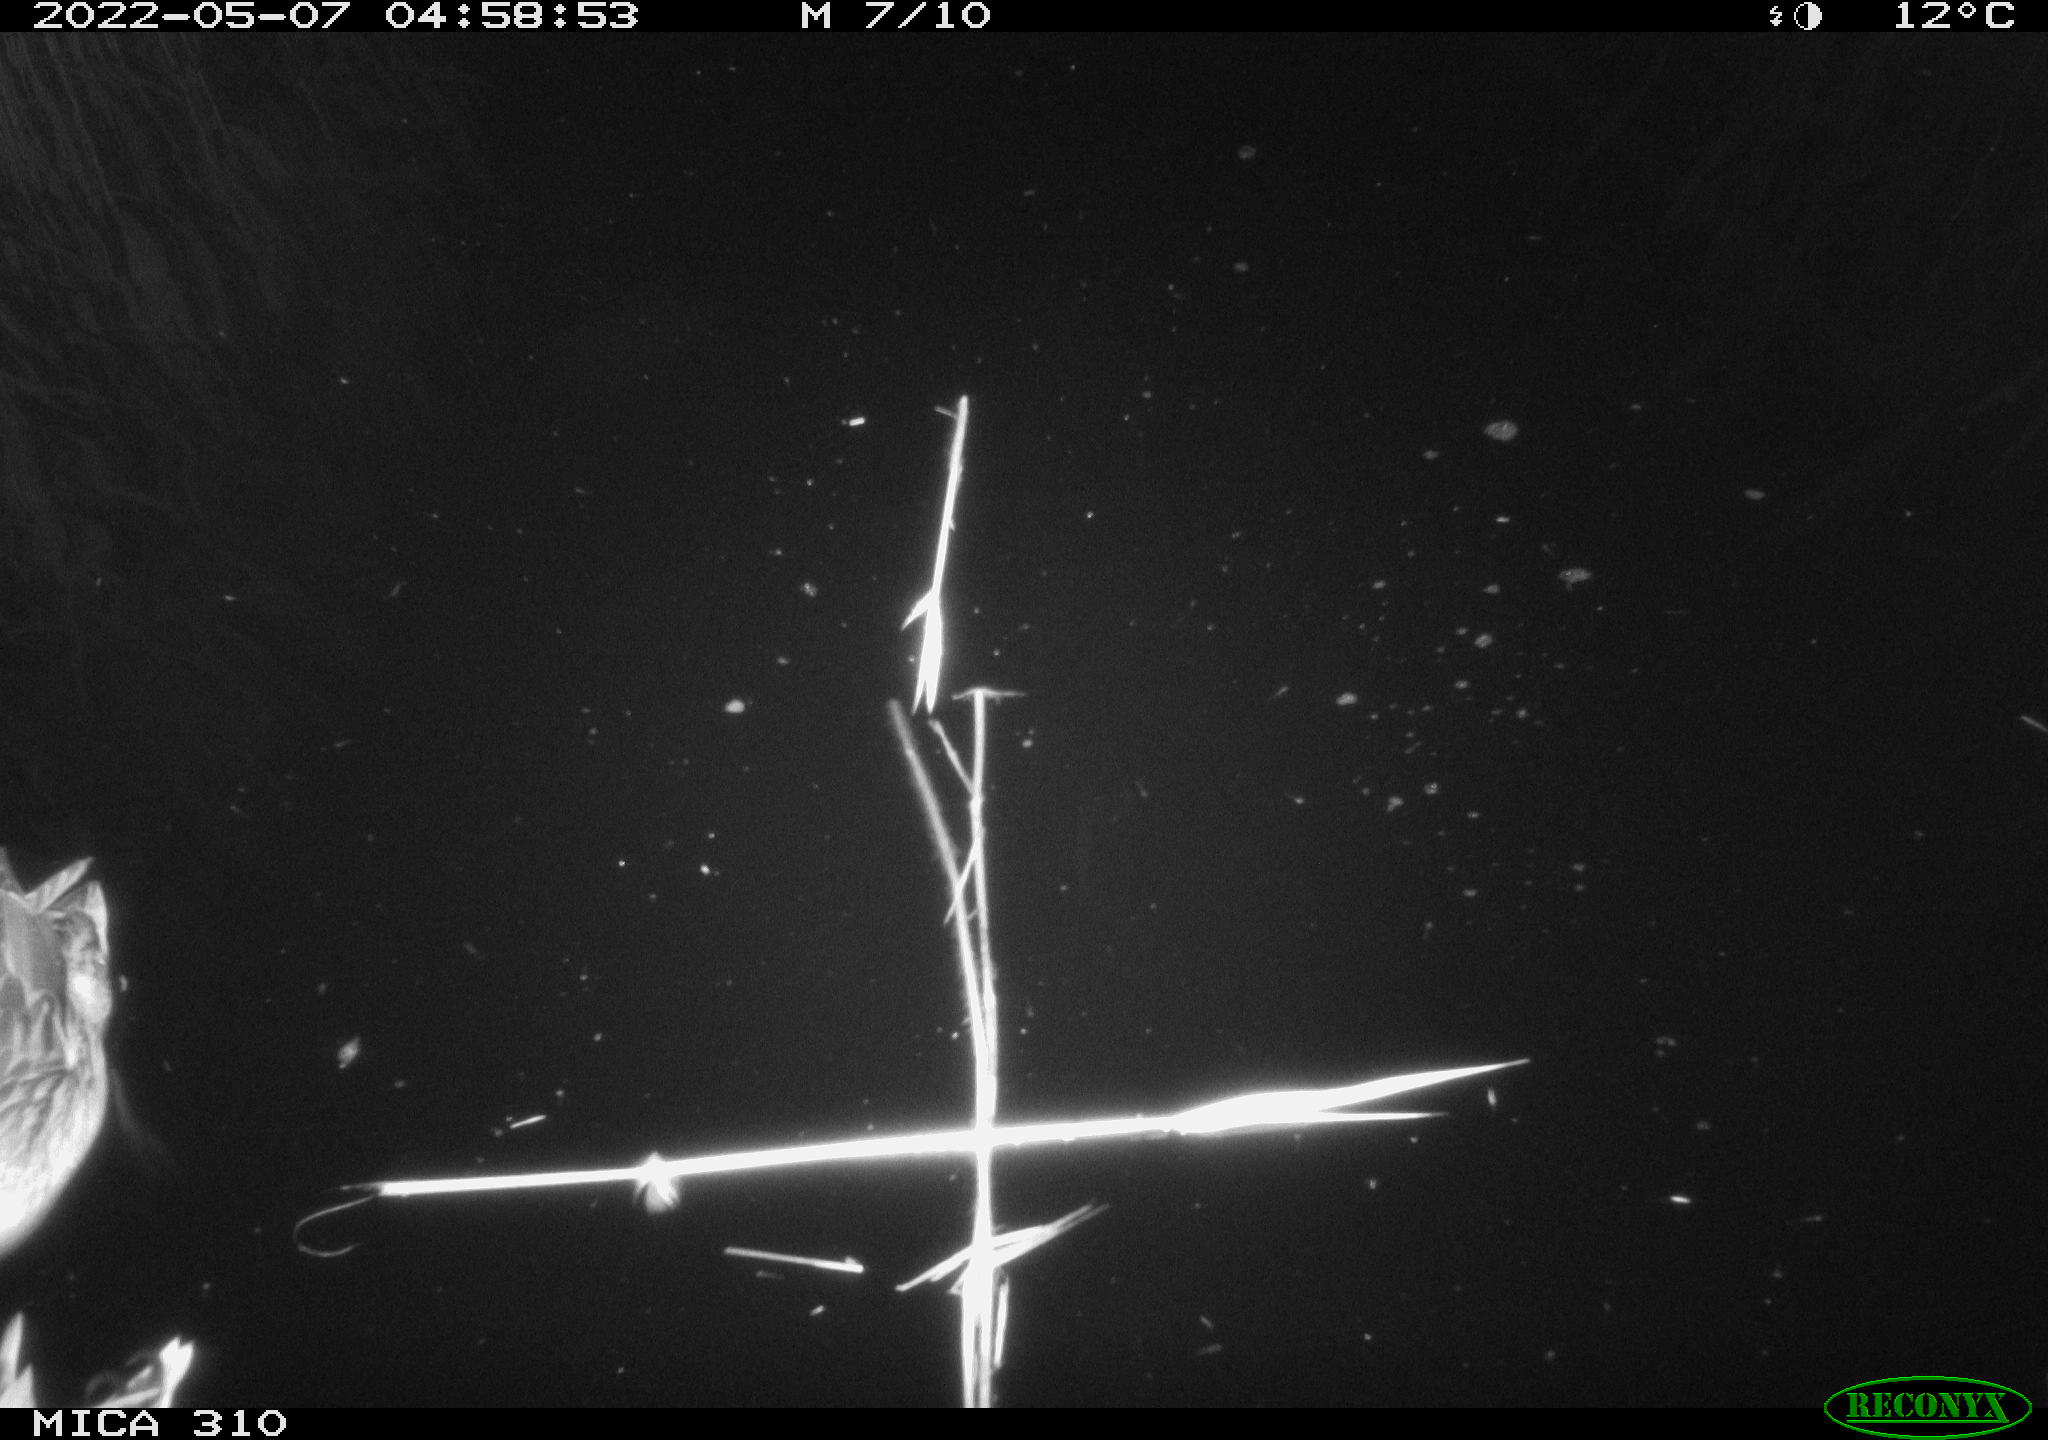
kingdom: Animalia
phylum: Chordata
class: Aves
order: Anseriformes
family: Anatidae
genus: Anas
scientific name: Anas platyrhynchos
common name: Mallard
